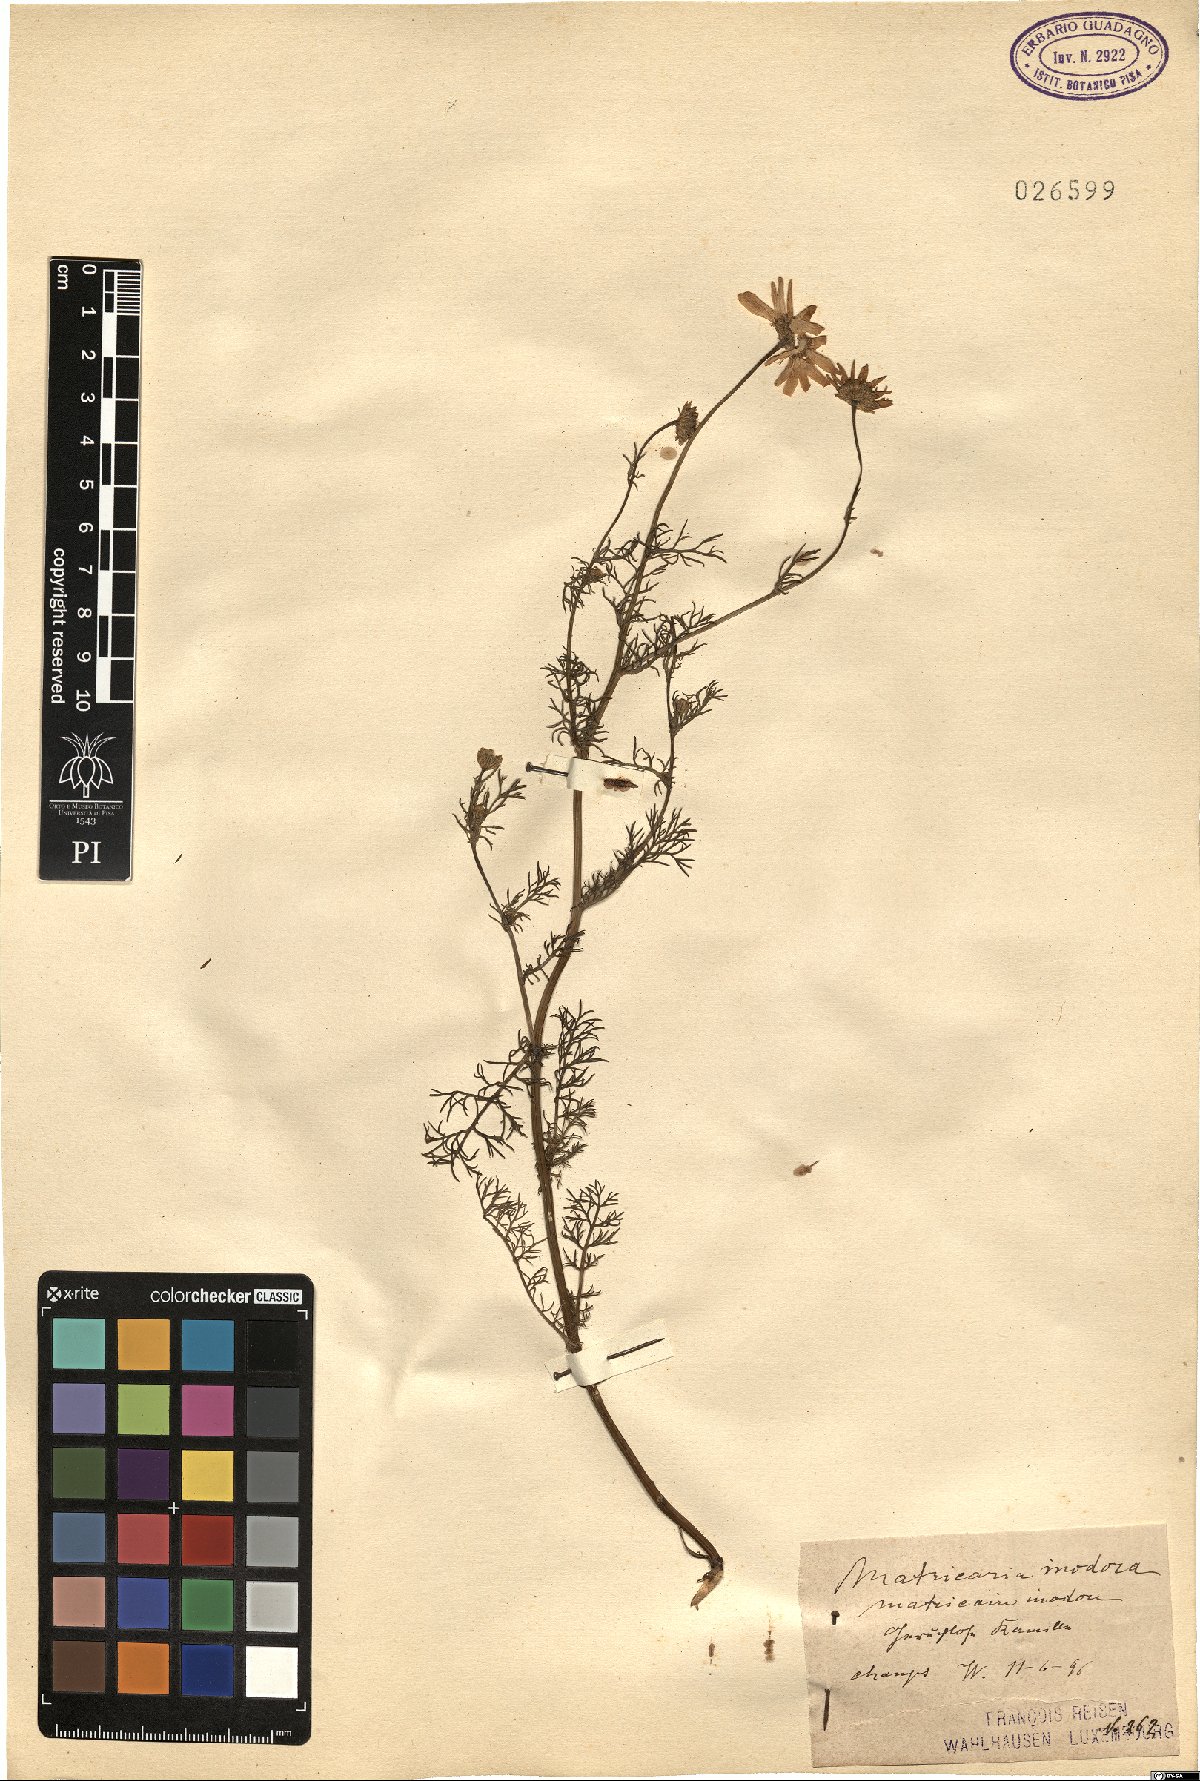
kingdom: Plantae
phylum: Tracheophyta
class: Magnoliopsida
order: Asterales
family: Asteraceae
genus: Tripleurospermum
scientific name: Tripleurospermum inodorum
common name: Scentless mayweed
